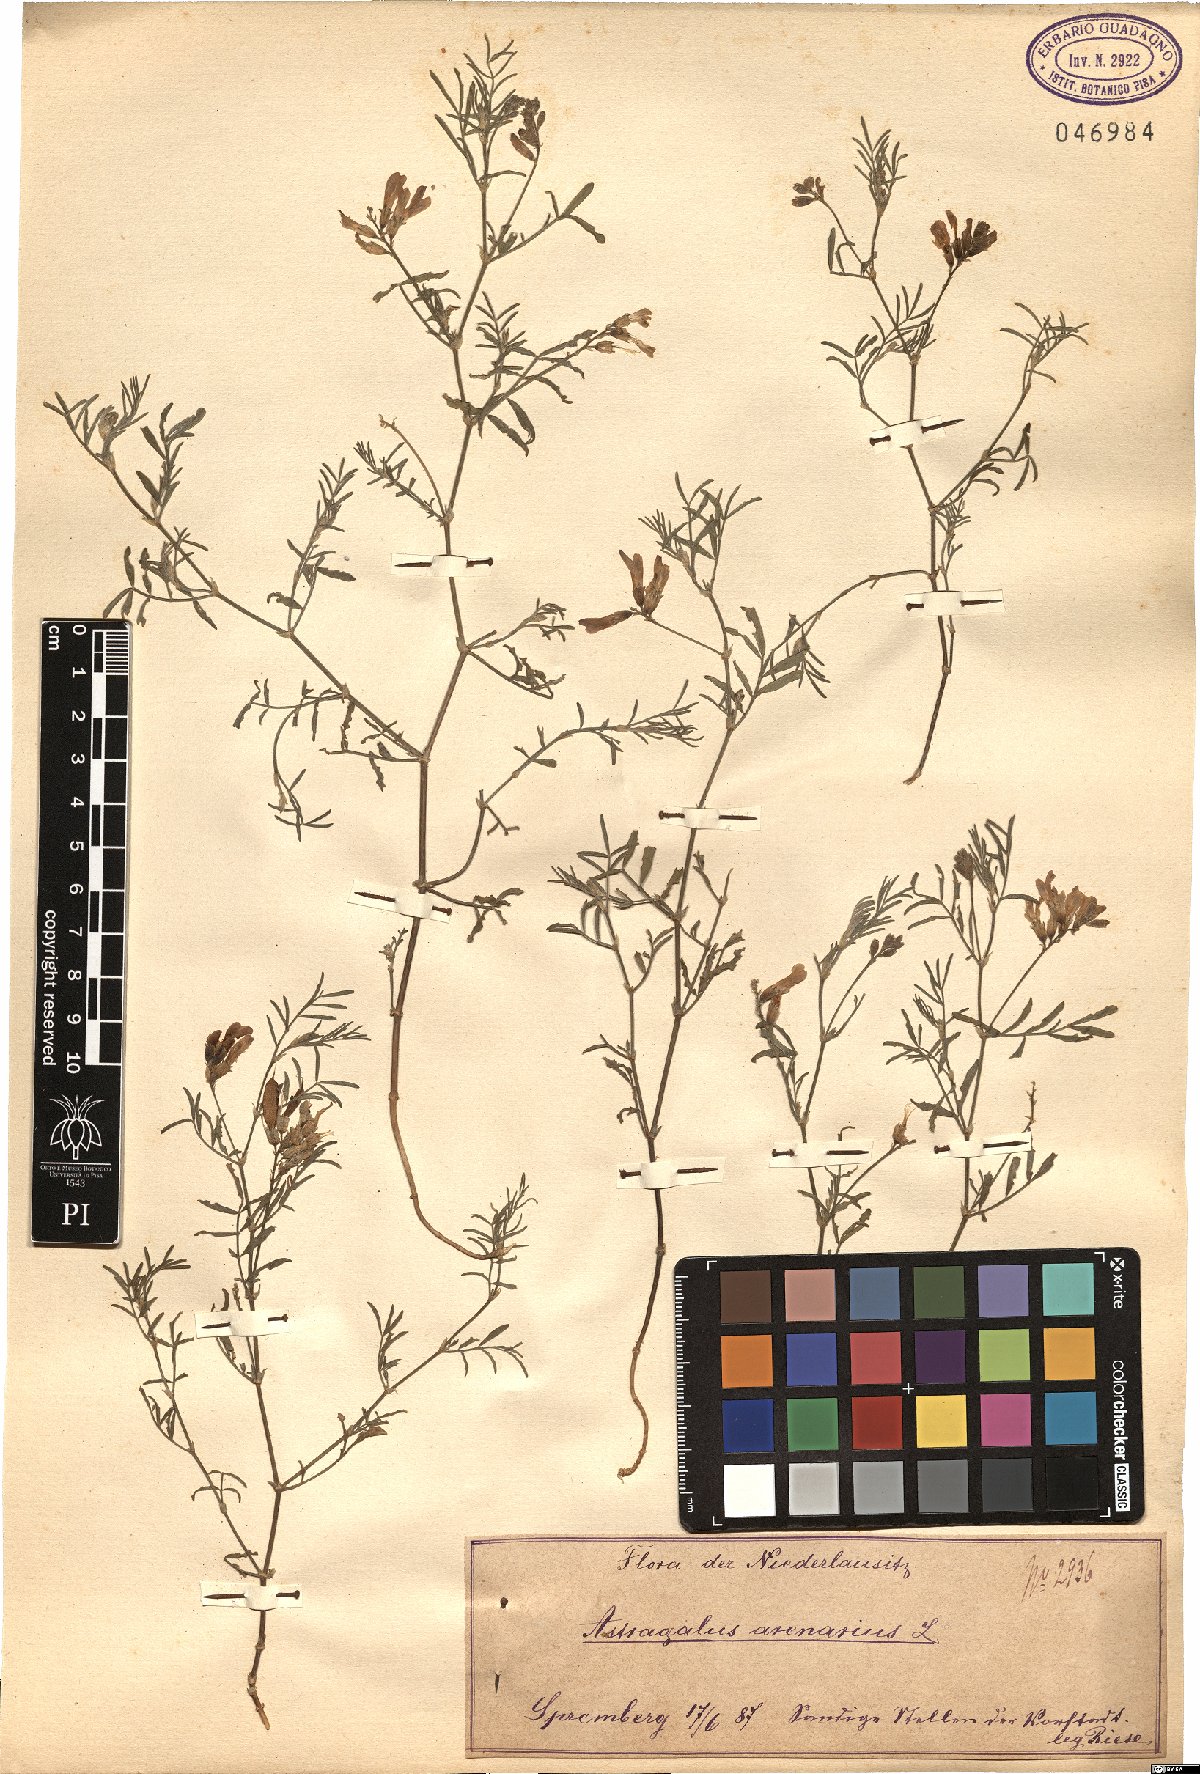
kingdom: Plantae
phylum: Tracheophyta
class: Magnoliopsida
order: Fabales
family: Fabaceae
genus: Astragalus
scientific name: Astragalus arenarius
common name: Arenarious milk-vetch
